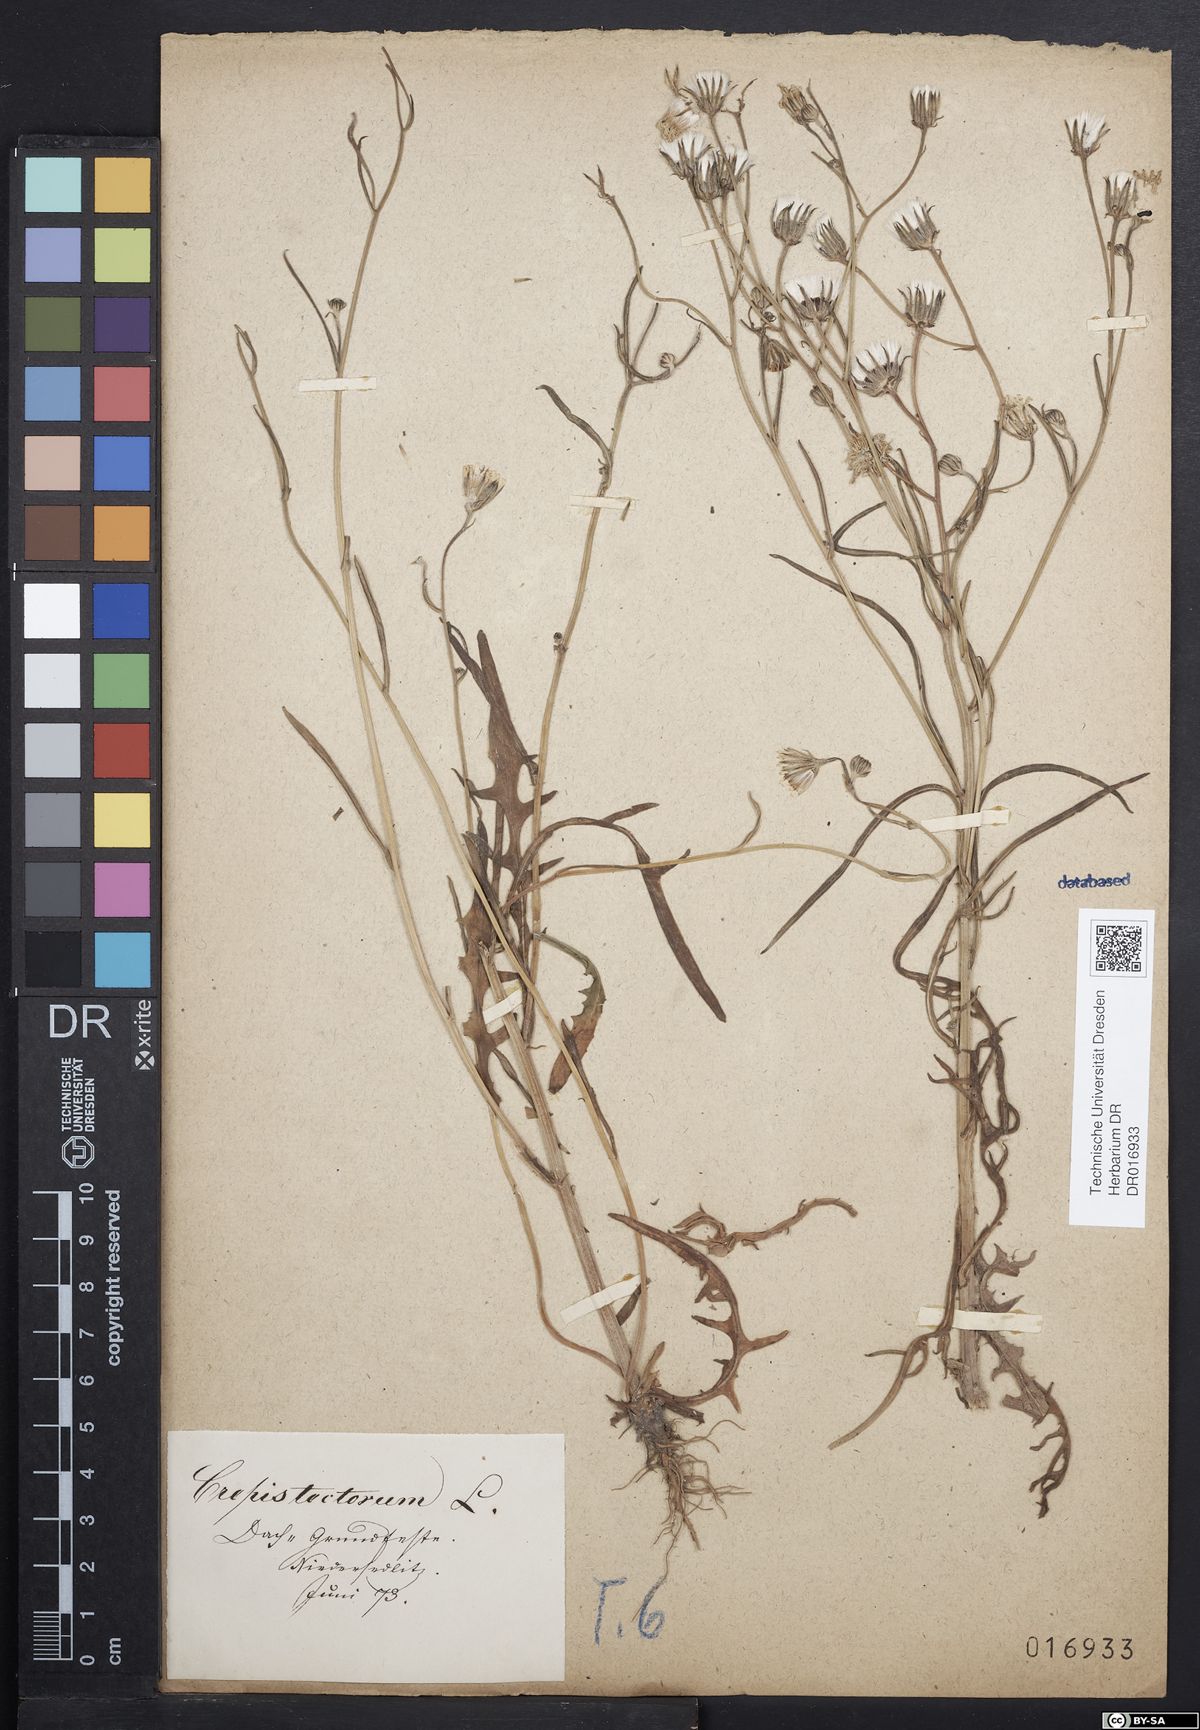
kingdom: Plantae
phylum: Tracheophyta
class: Magnoliopsida
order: Asterales
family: Asteraceae
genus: Crepis
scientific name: Crepis tectorum
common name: Narrow-leaved hawk's-beard
